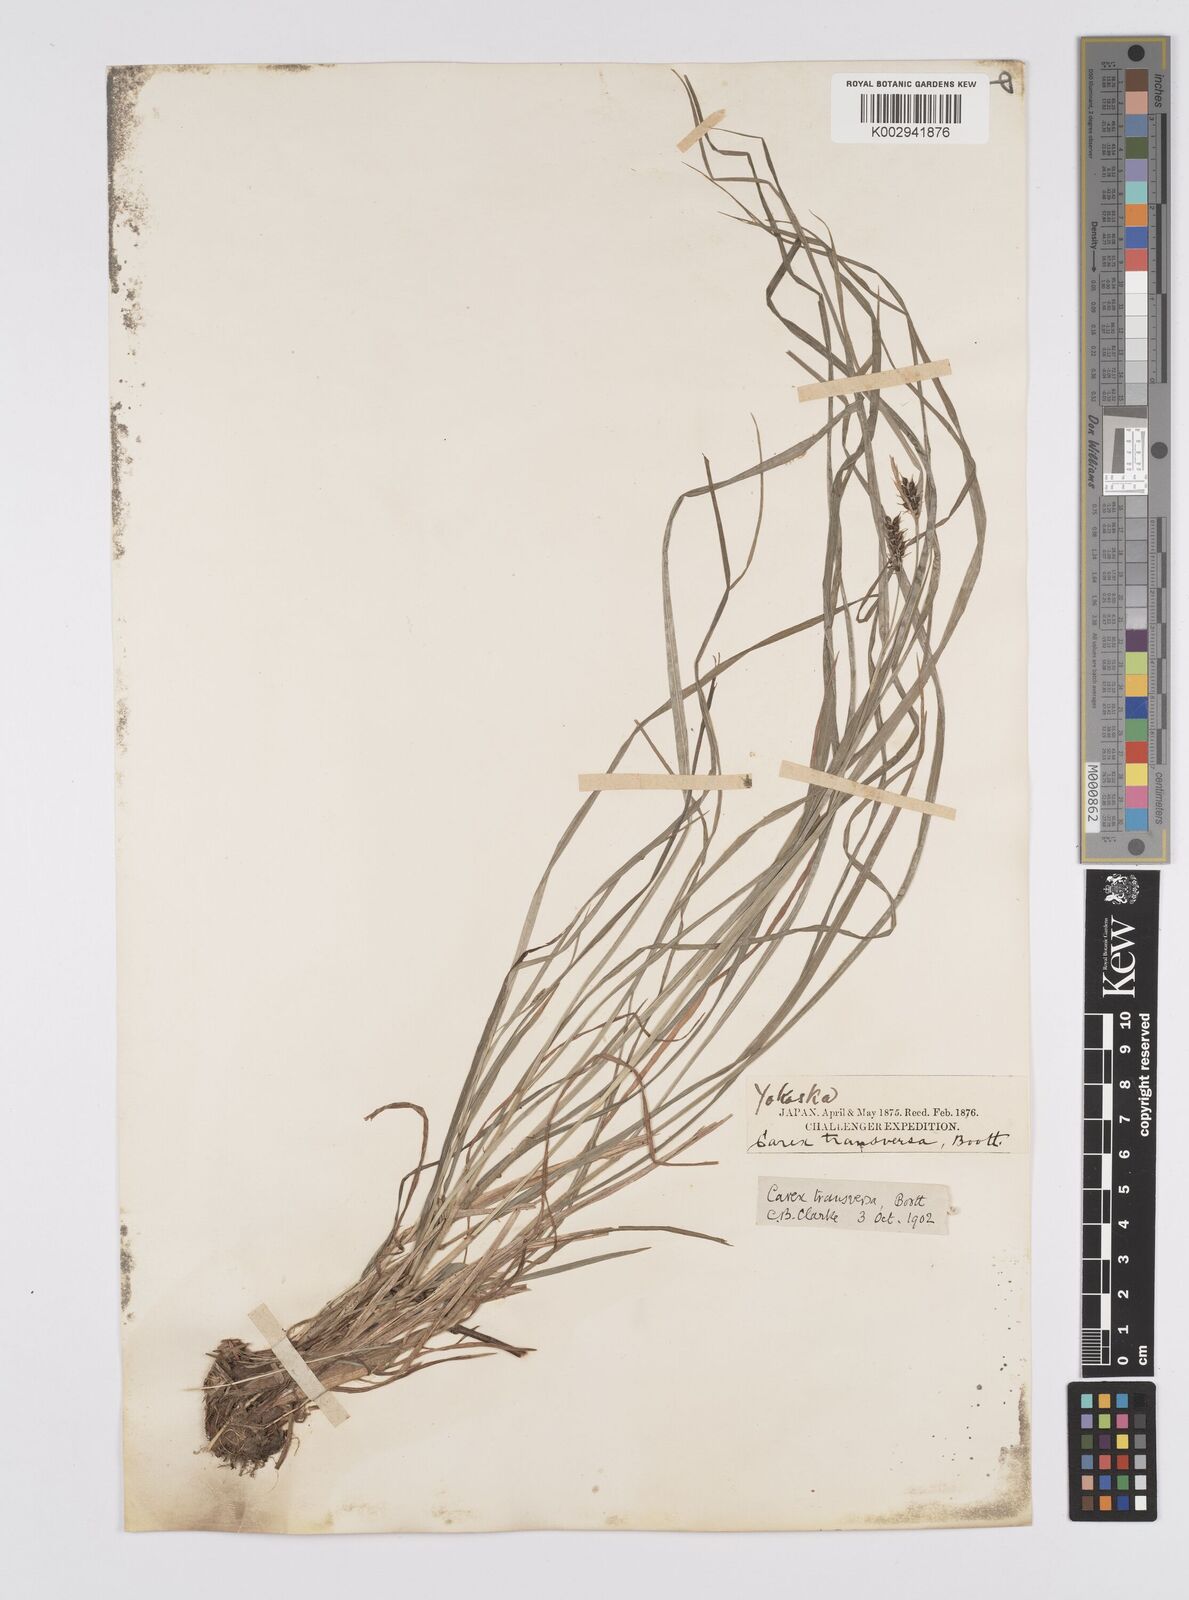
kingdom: Plantae
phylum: Tracheophyta
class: Liliopsida
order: Poales
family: Cyperaceae
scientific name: Cyperaceae
